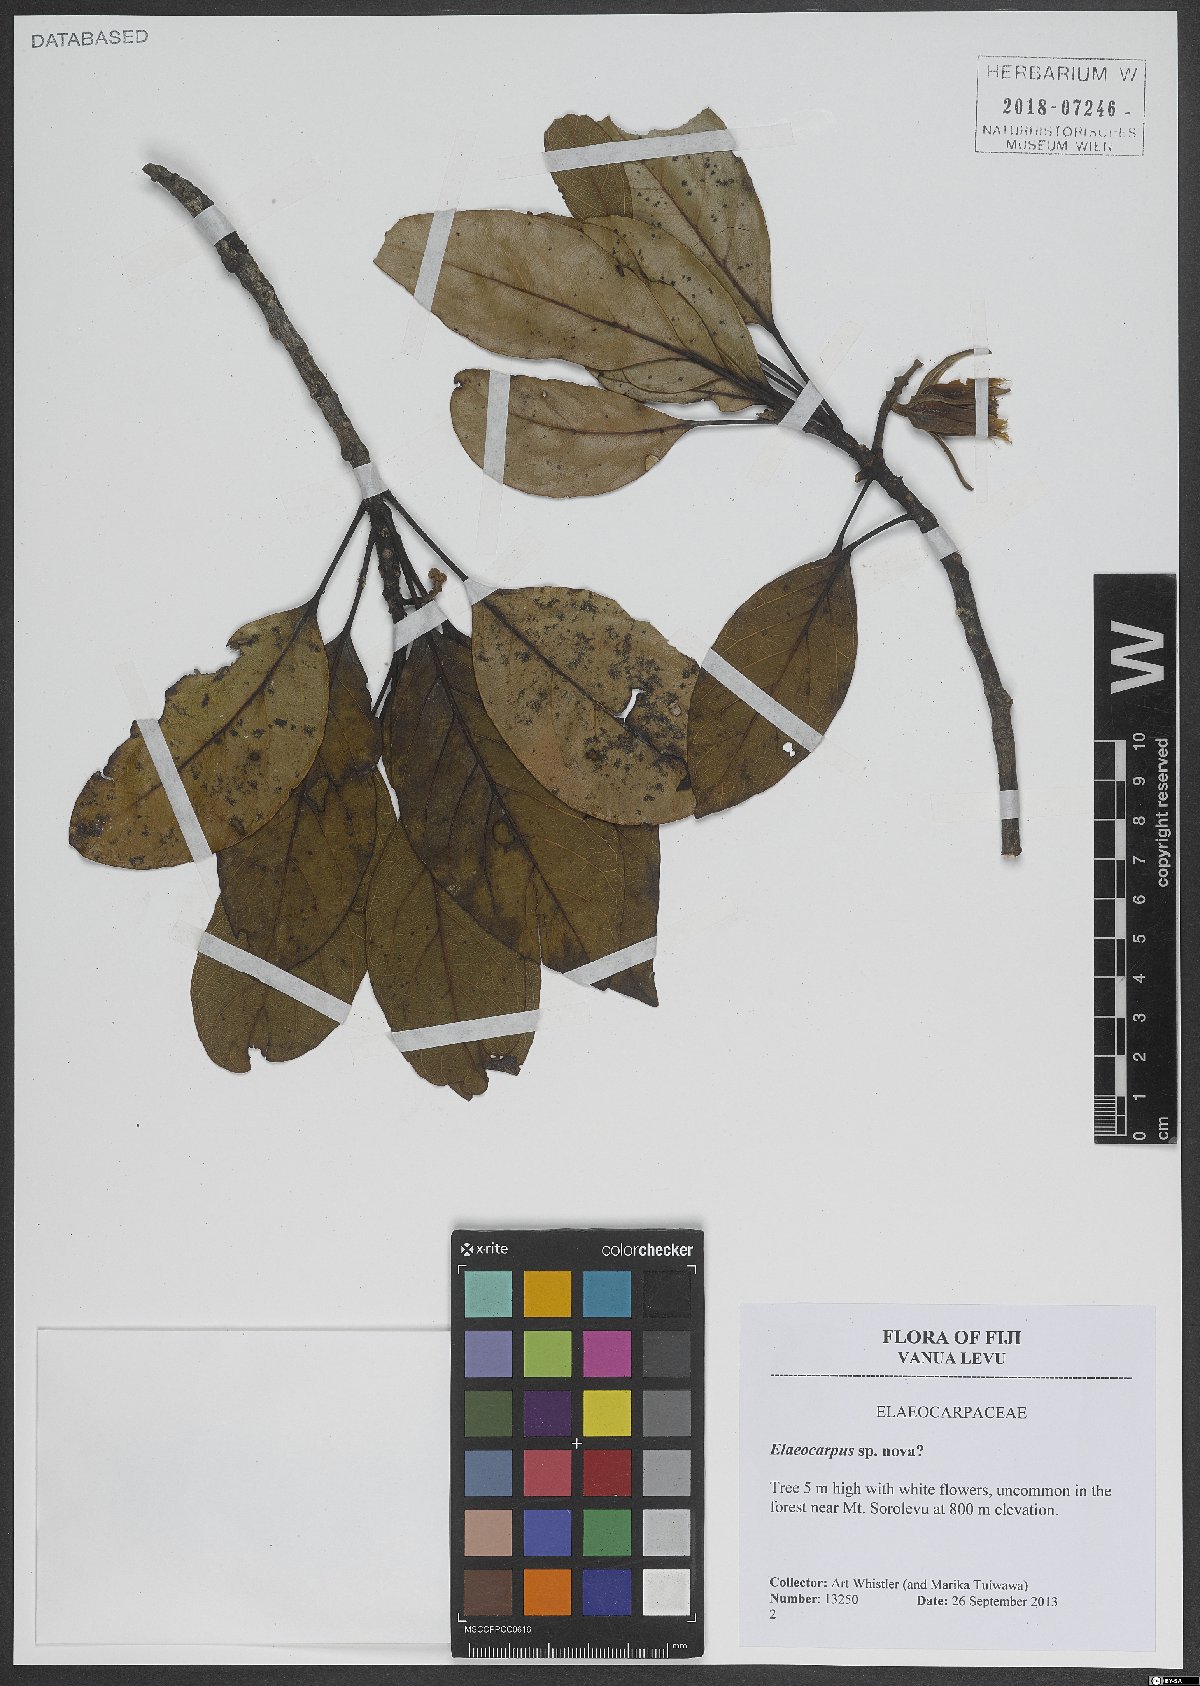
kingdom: Plantae
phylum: Tracheophyta
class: Magnoliopsida
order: Oxalidales
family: Elaeocarpaceae
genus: Elaeocarpus
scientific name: Elaeocarpus
